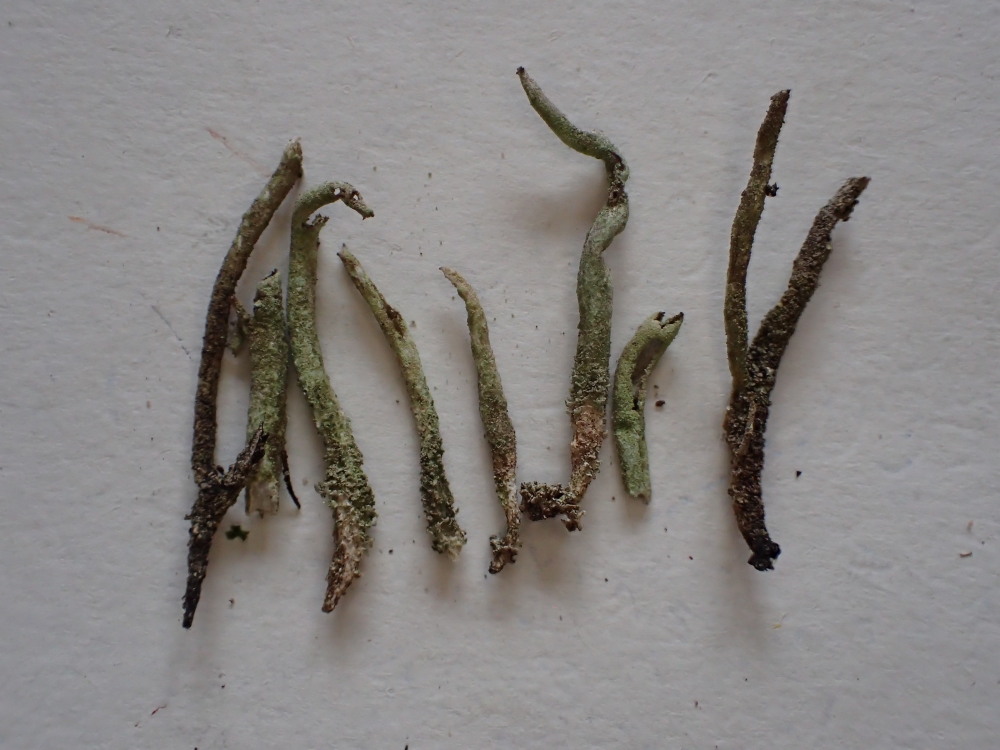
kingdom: Fungi
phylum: Ascomycota
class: Lecanoromycetes
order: Lecanorales
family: Cladoniaceae
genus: Cladonia
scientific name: Cladonia glauca
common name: grågrøn bægerlav
